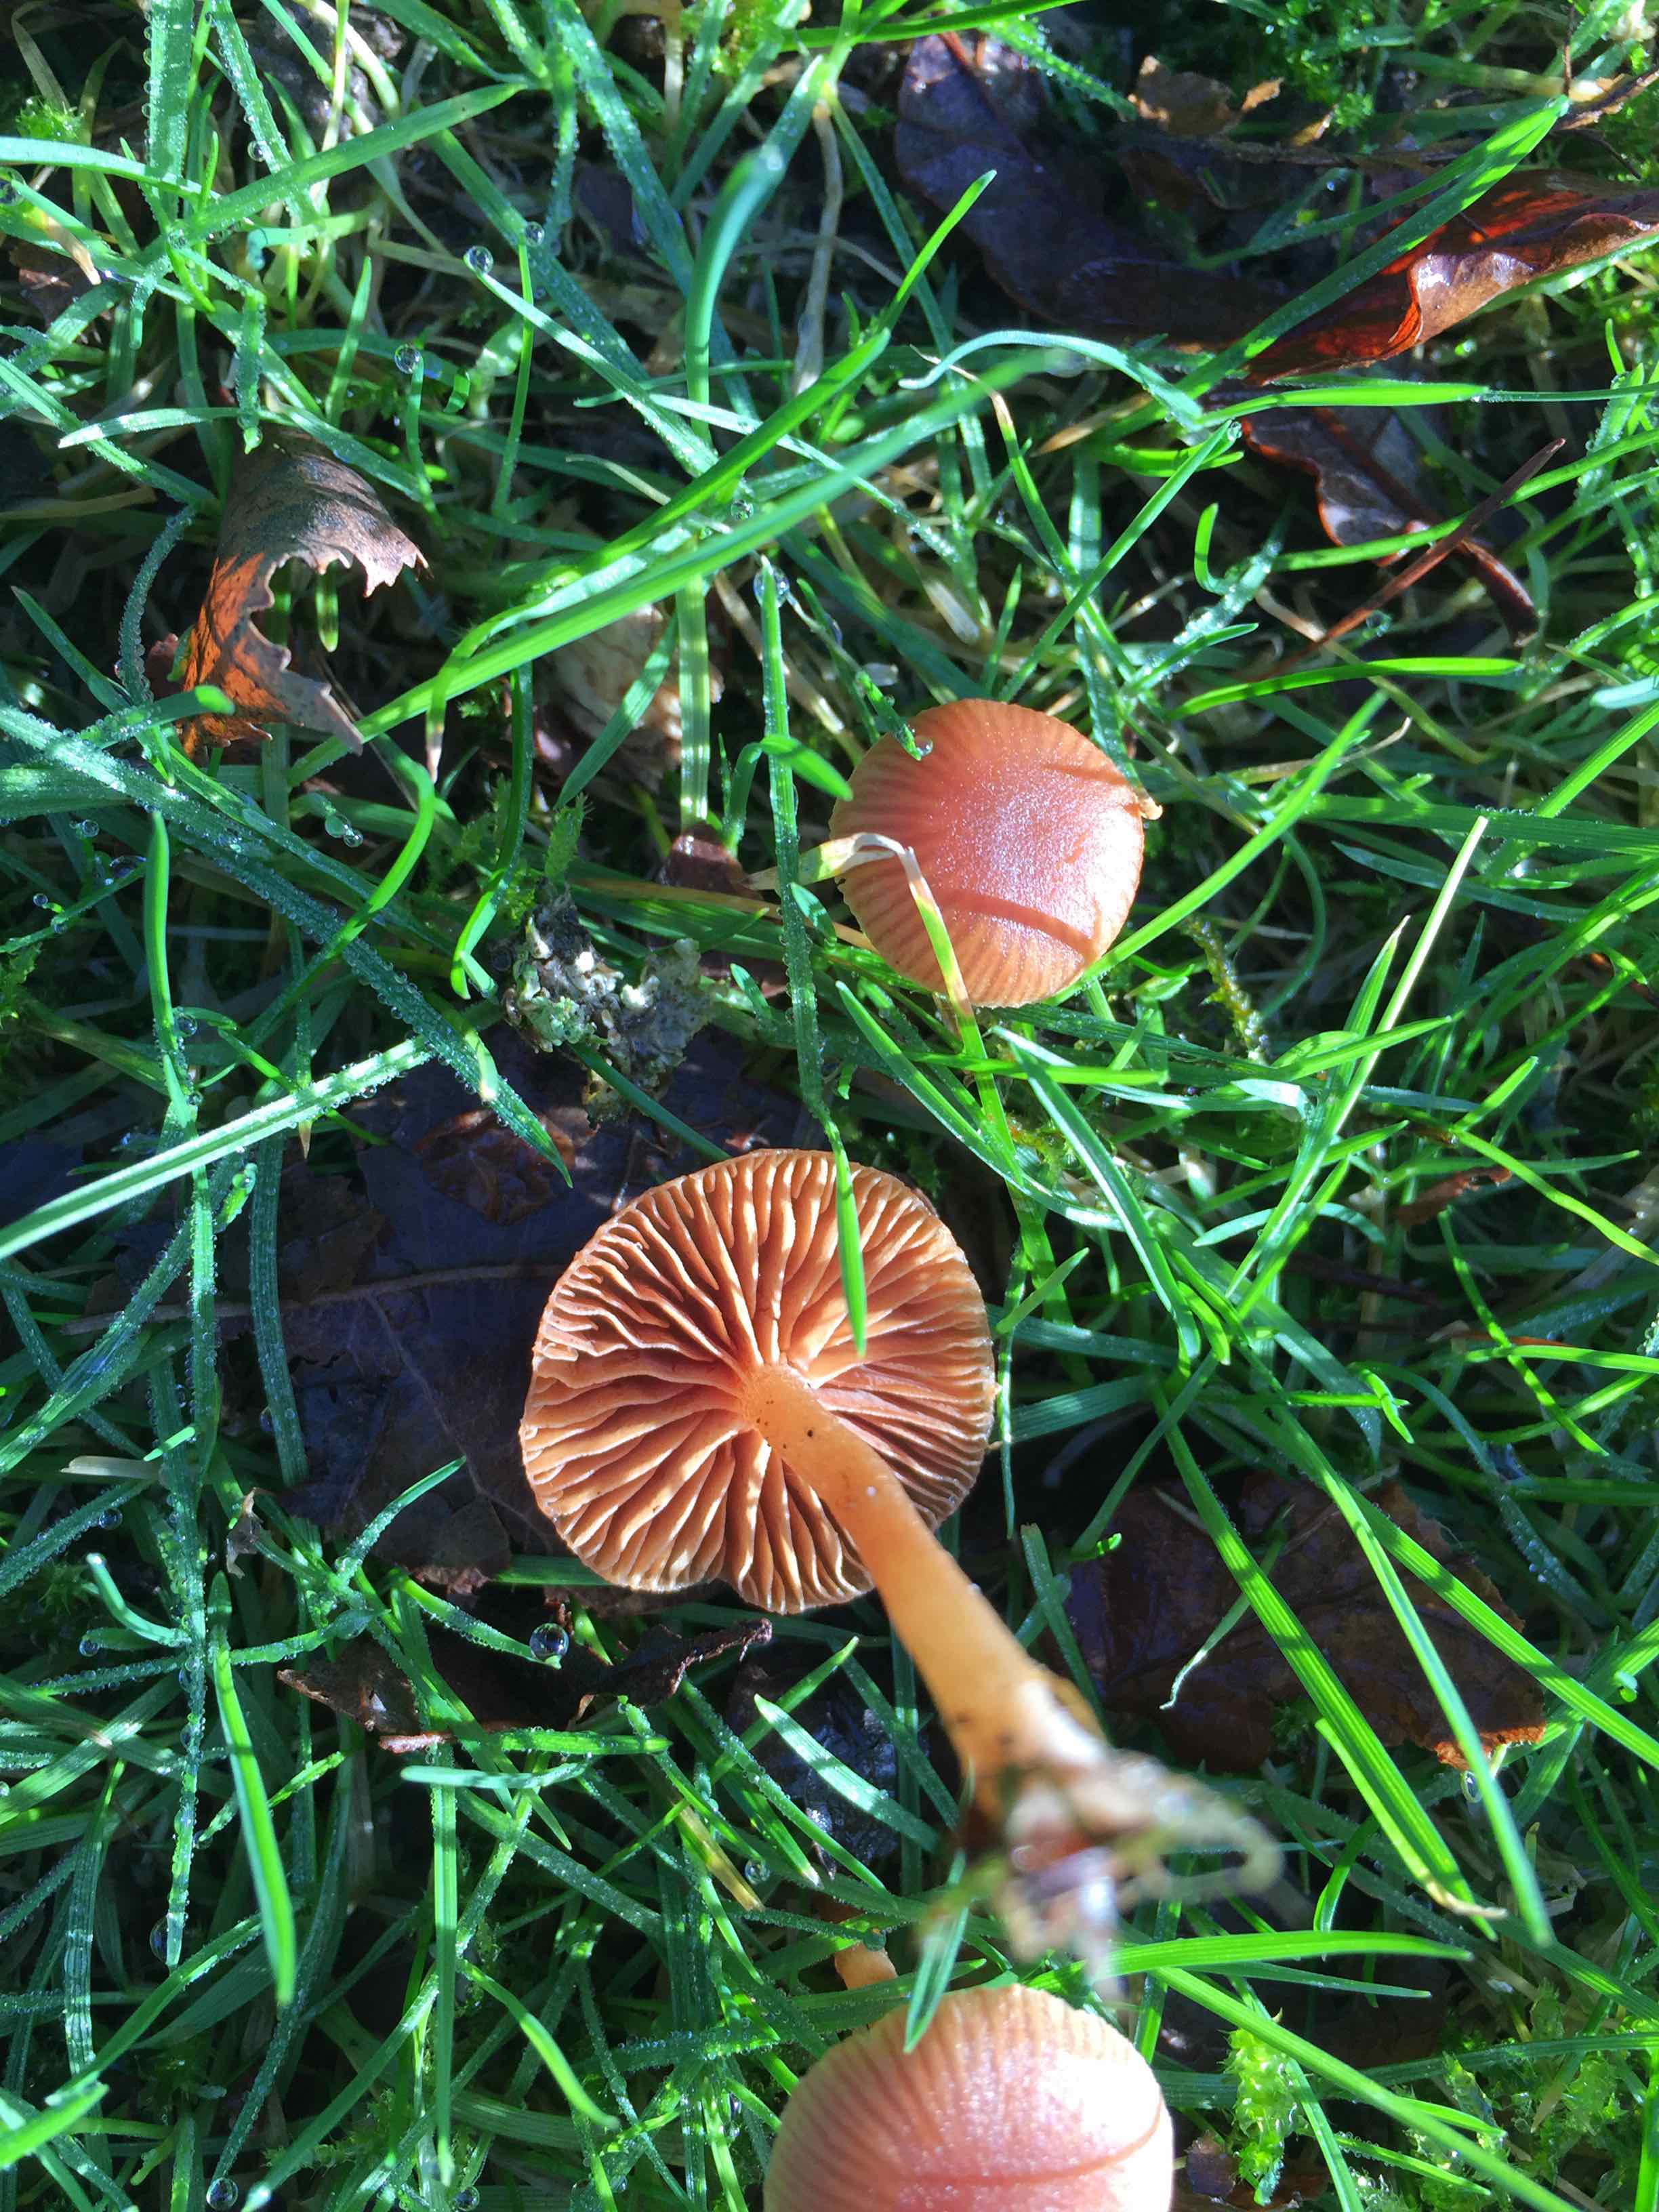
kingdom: Fungi
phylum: Basidiomycota
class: Agaricomycetes
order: Agaricales
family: Tubariaceae
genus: Tubaria
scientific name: Tubaria furfuracea
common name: kliddet fnughat
